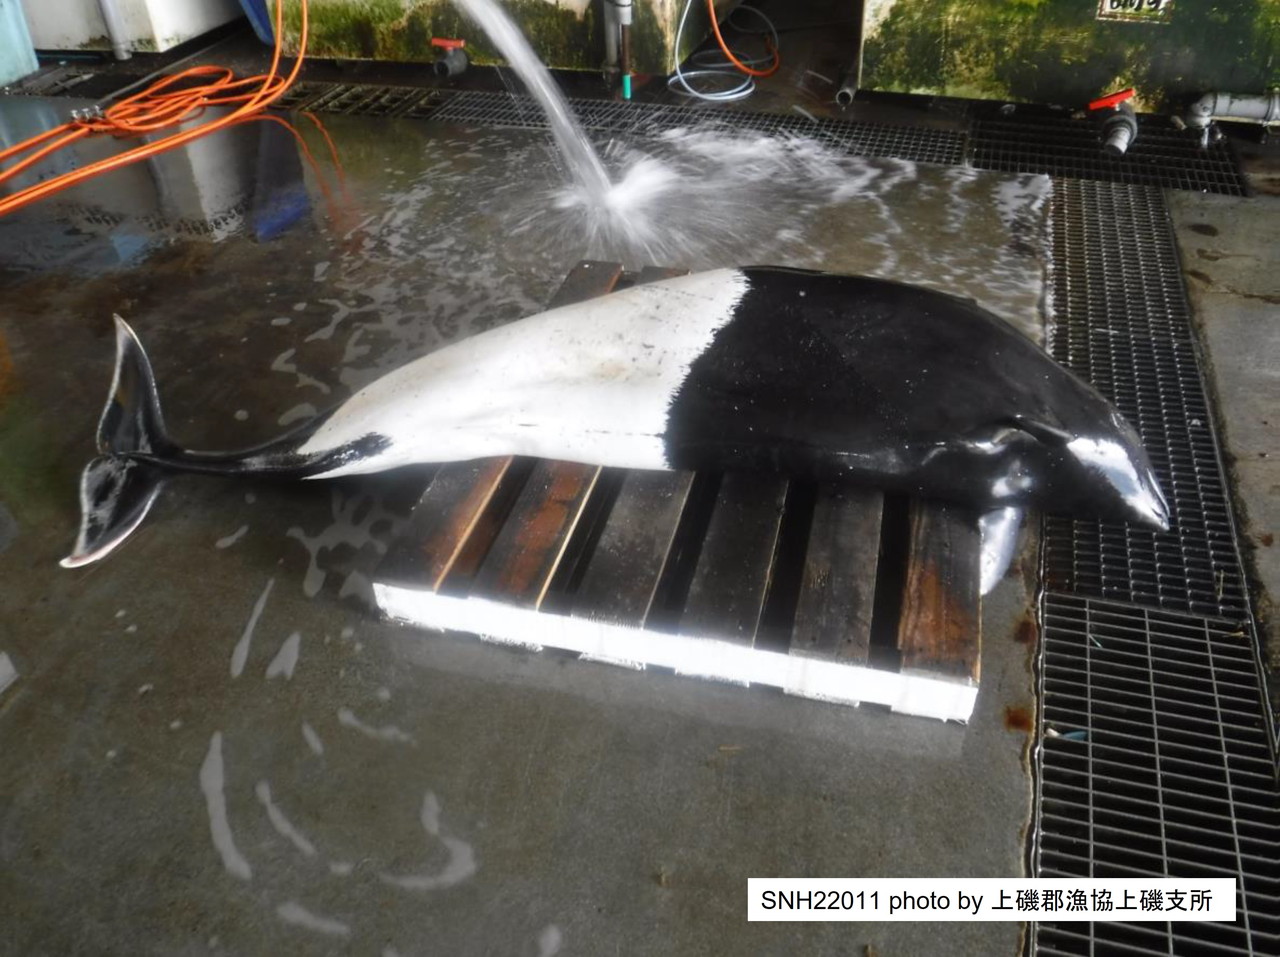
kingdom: Animalia
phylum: Chordata
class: Mammalia
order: Cetacea
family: Phocoenidae
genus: Phocoenoides
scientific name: Phocoenoides dalli
